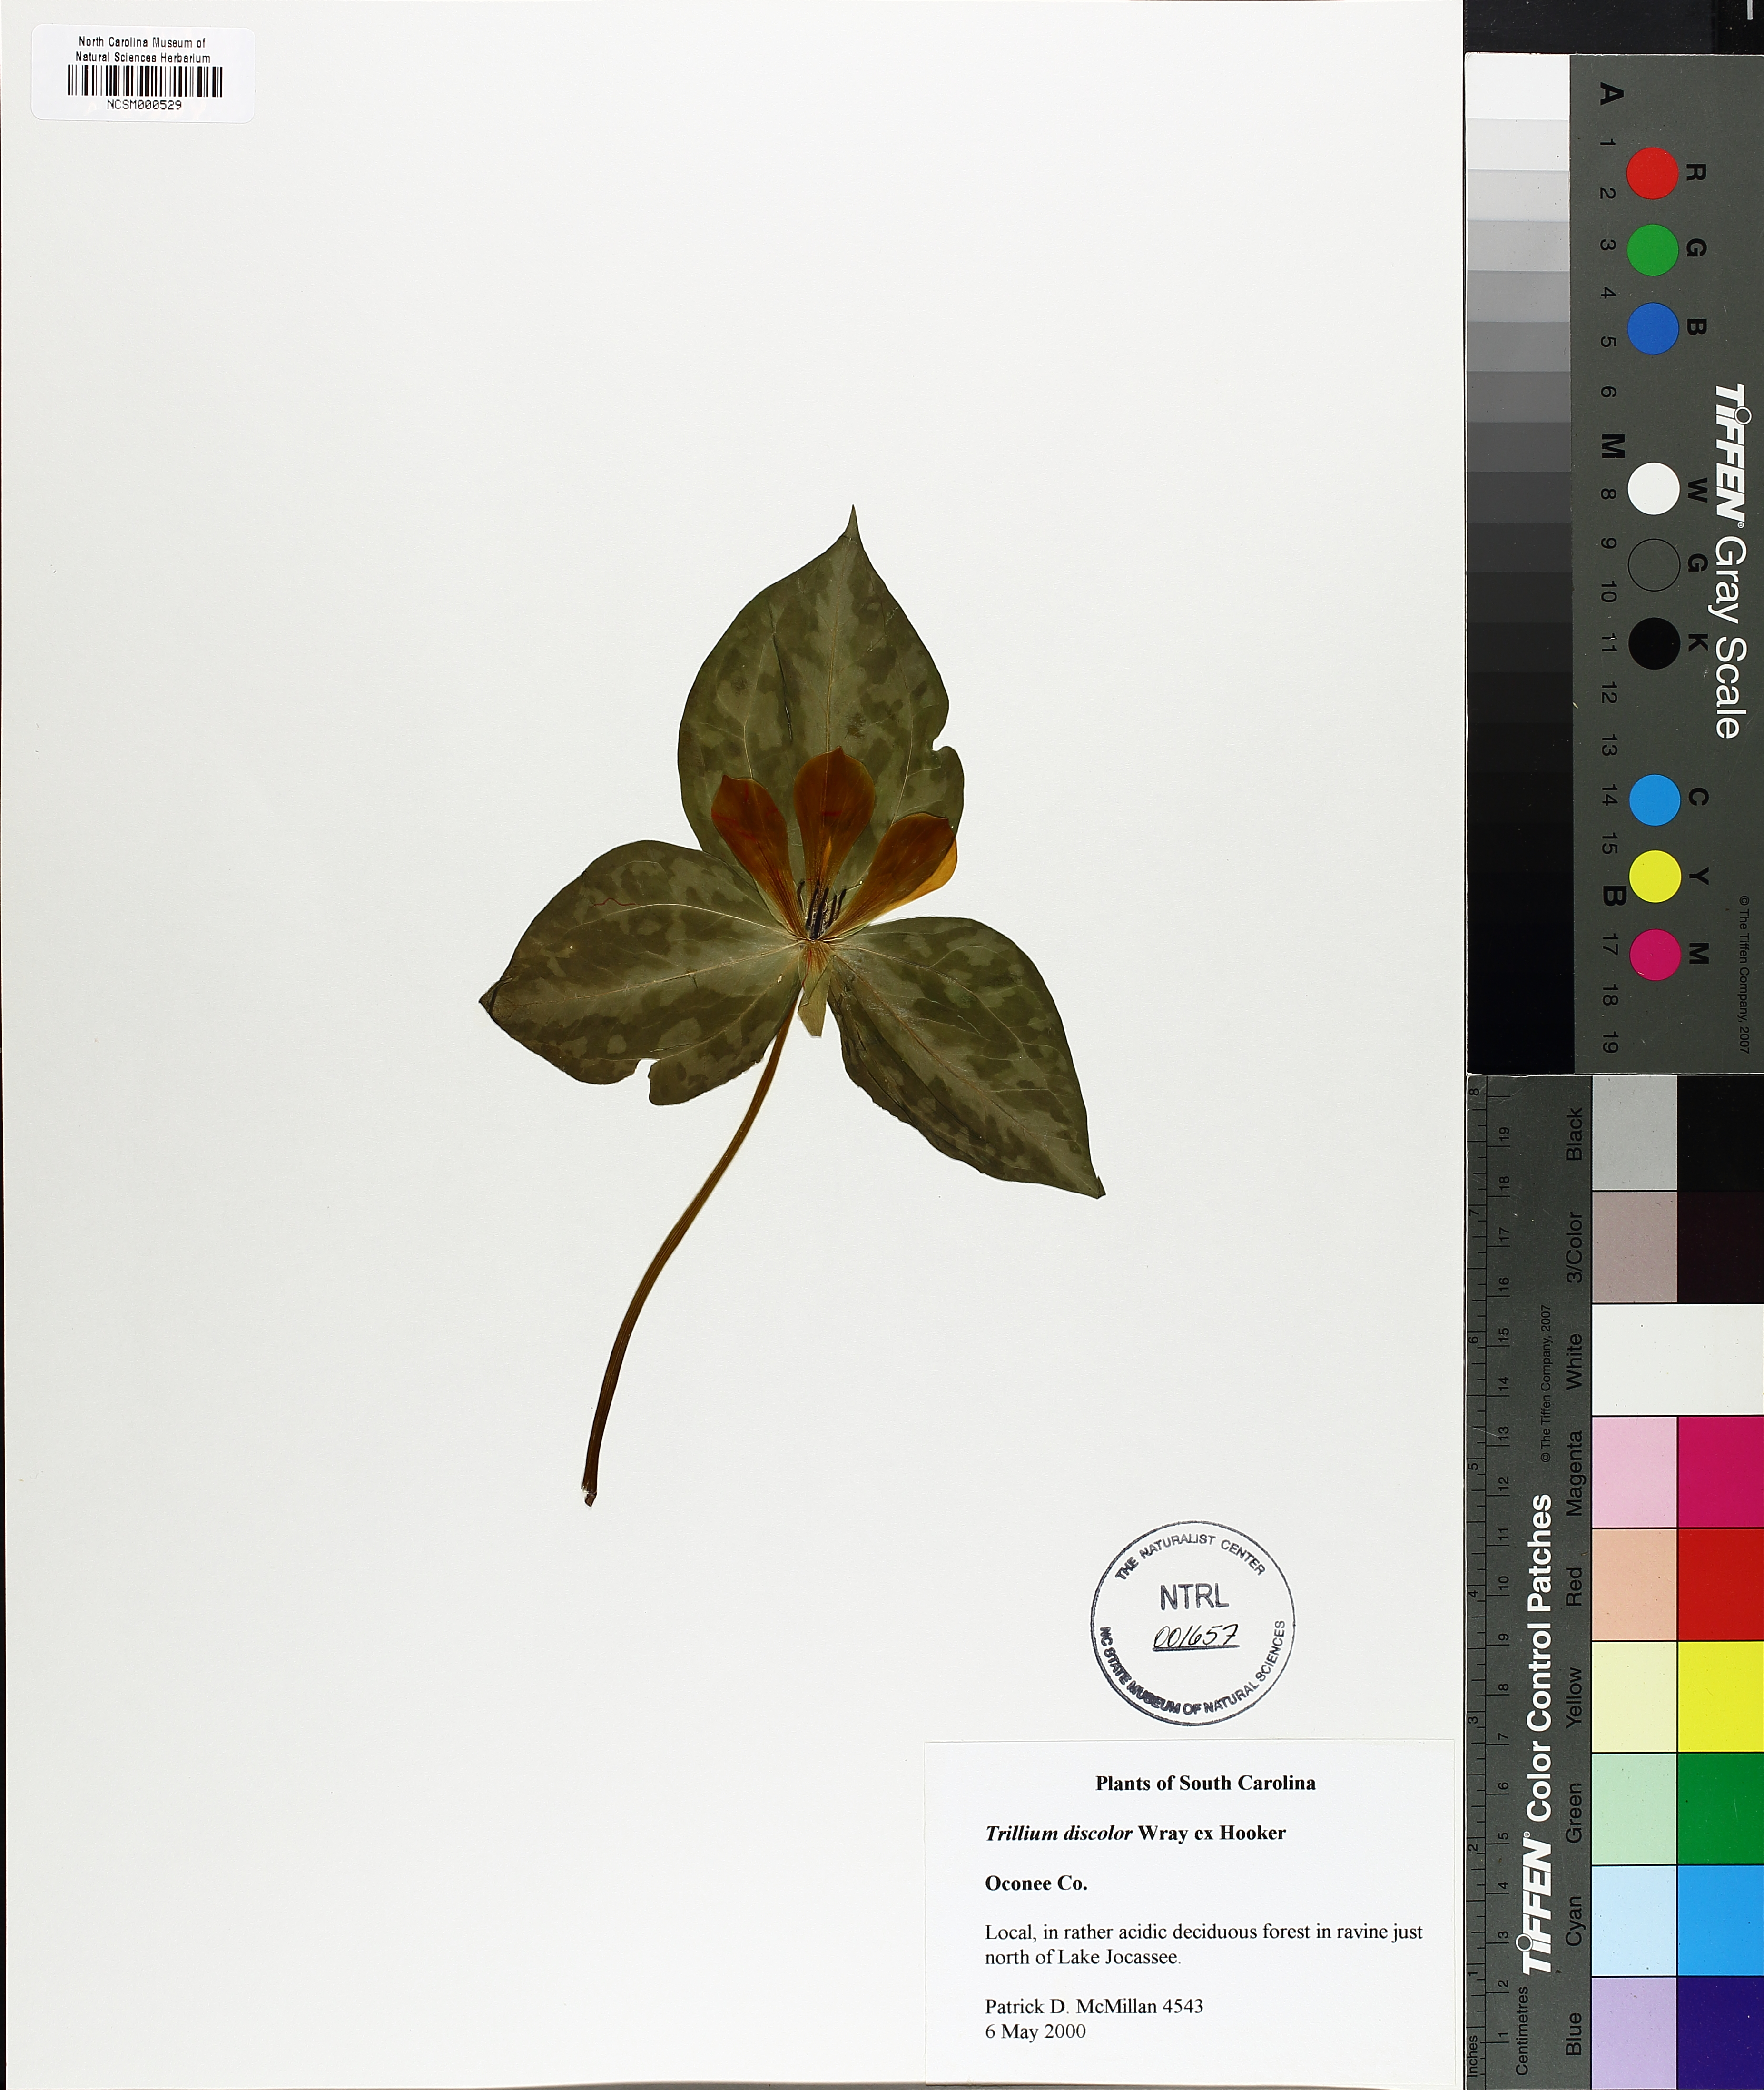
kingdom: Plantae
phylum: Tracheophyta
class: Liliopsida
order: Liliales
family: Melanthiaceae
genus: Trillium
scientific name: Trillium discolor
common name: Faded trillium
